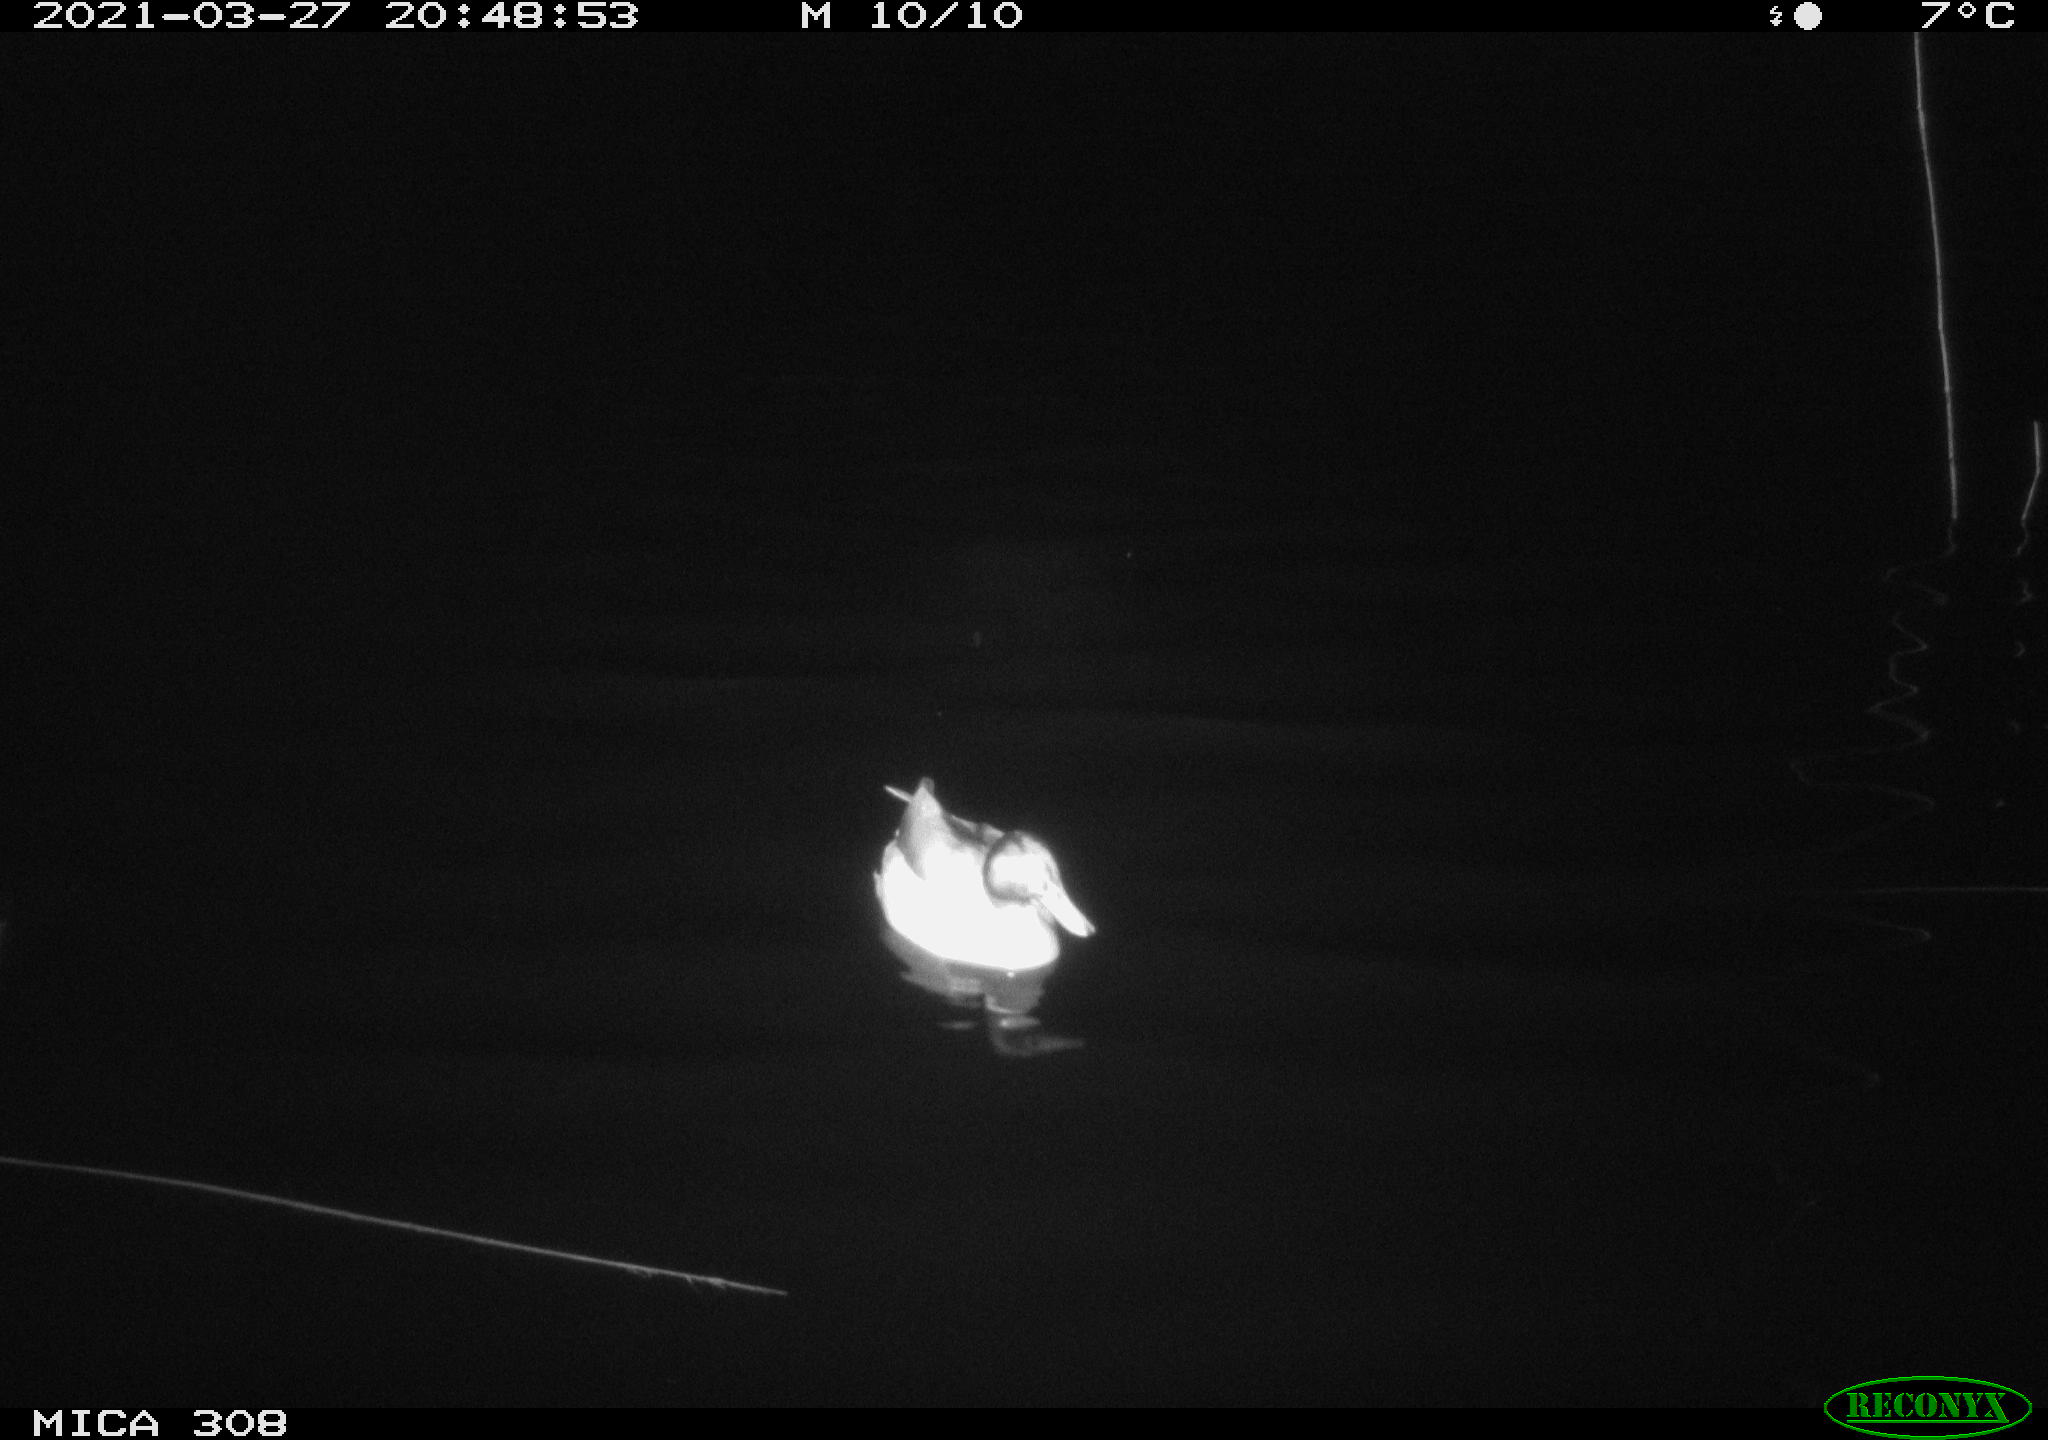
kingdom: Animalia
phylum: Chordata
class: Aves
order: Anseriformes
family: Anatidae
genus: Anas
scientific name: Anas platyrhynchos
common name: Mallard
